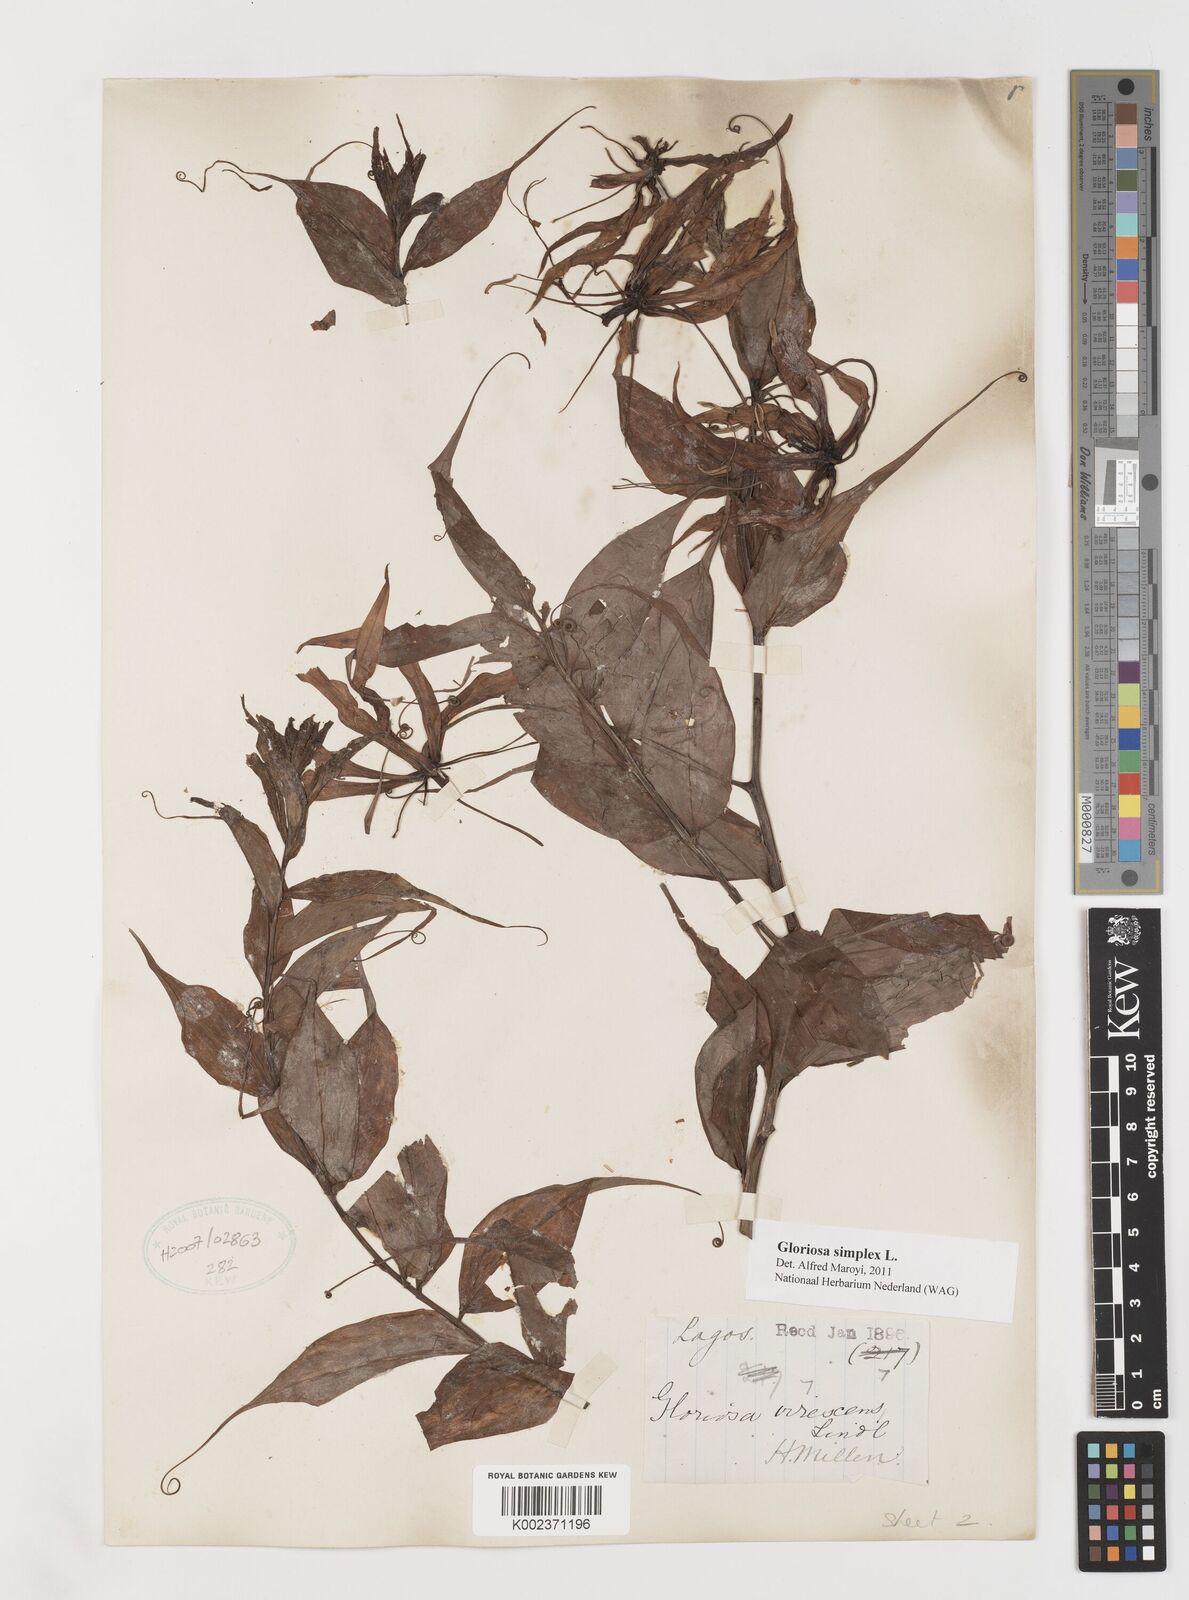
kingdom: Plantae
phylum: Tracheophyta
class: Liliopsida
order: Liliales
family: Colchicaceae
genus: Gloriosa
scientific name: Gloriosa simplex
